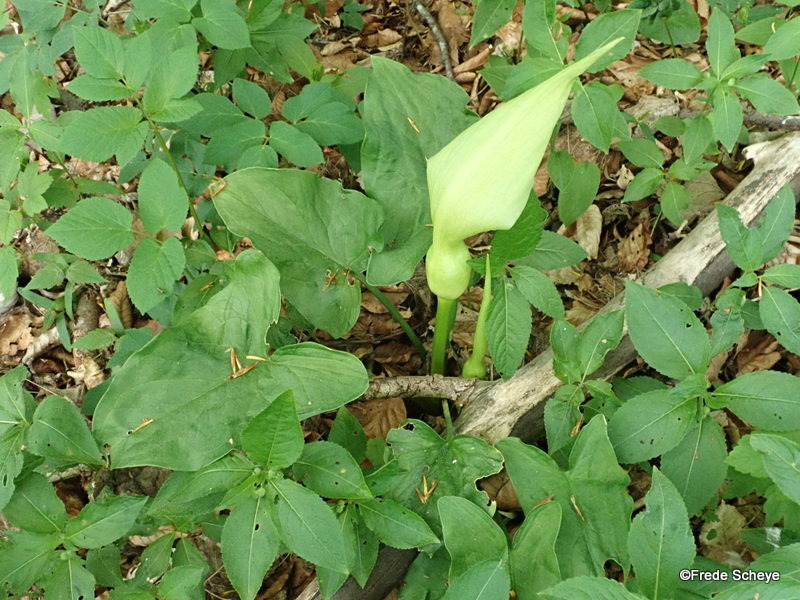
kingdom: Plantae
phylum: Tracheophyta
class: Liliopsida
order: Alismatales
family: Araceae
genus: Arum
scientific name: Arum
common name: Arumslægten
